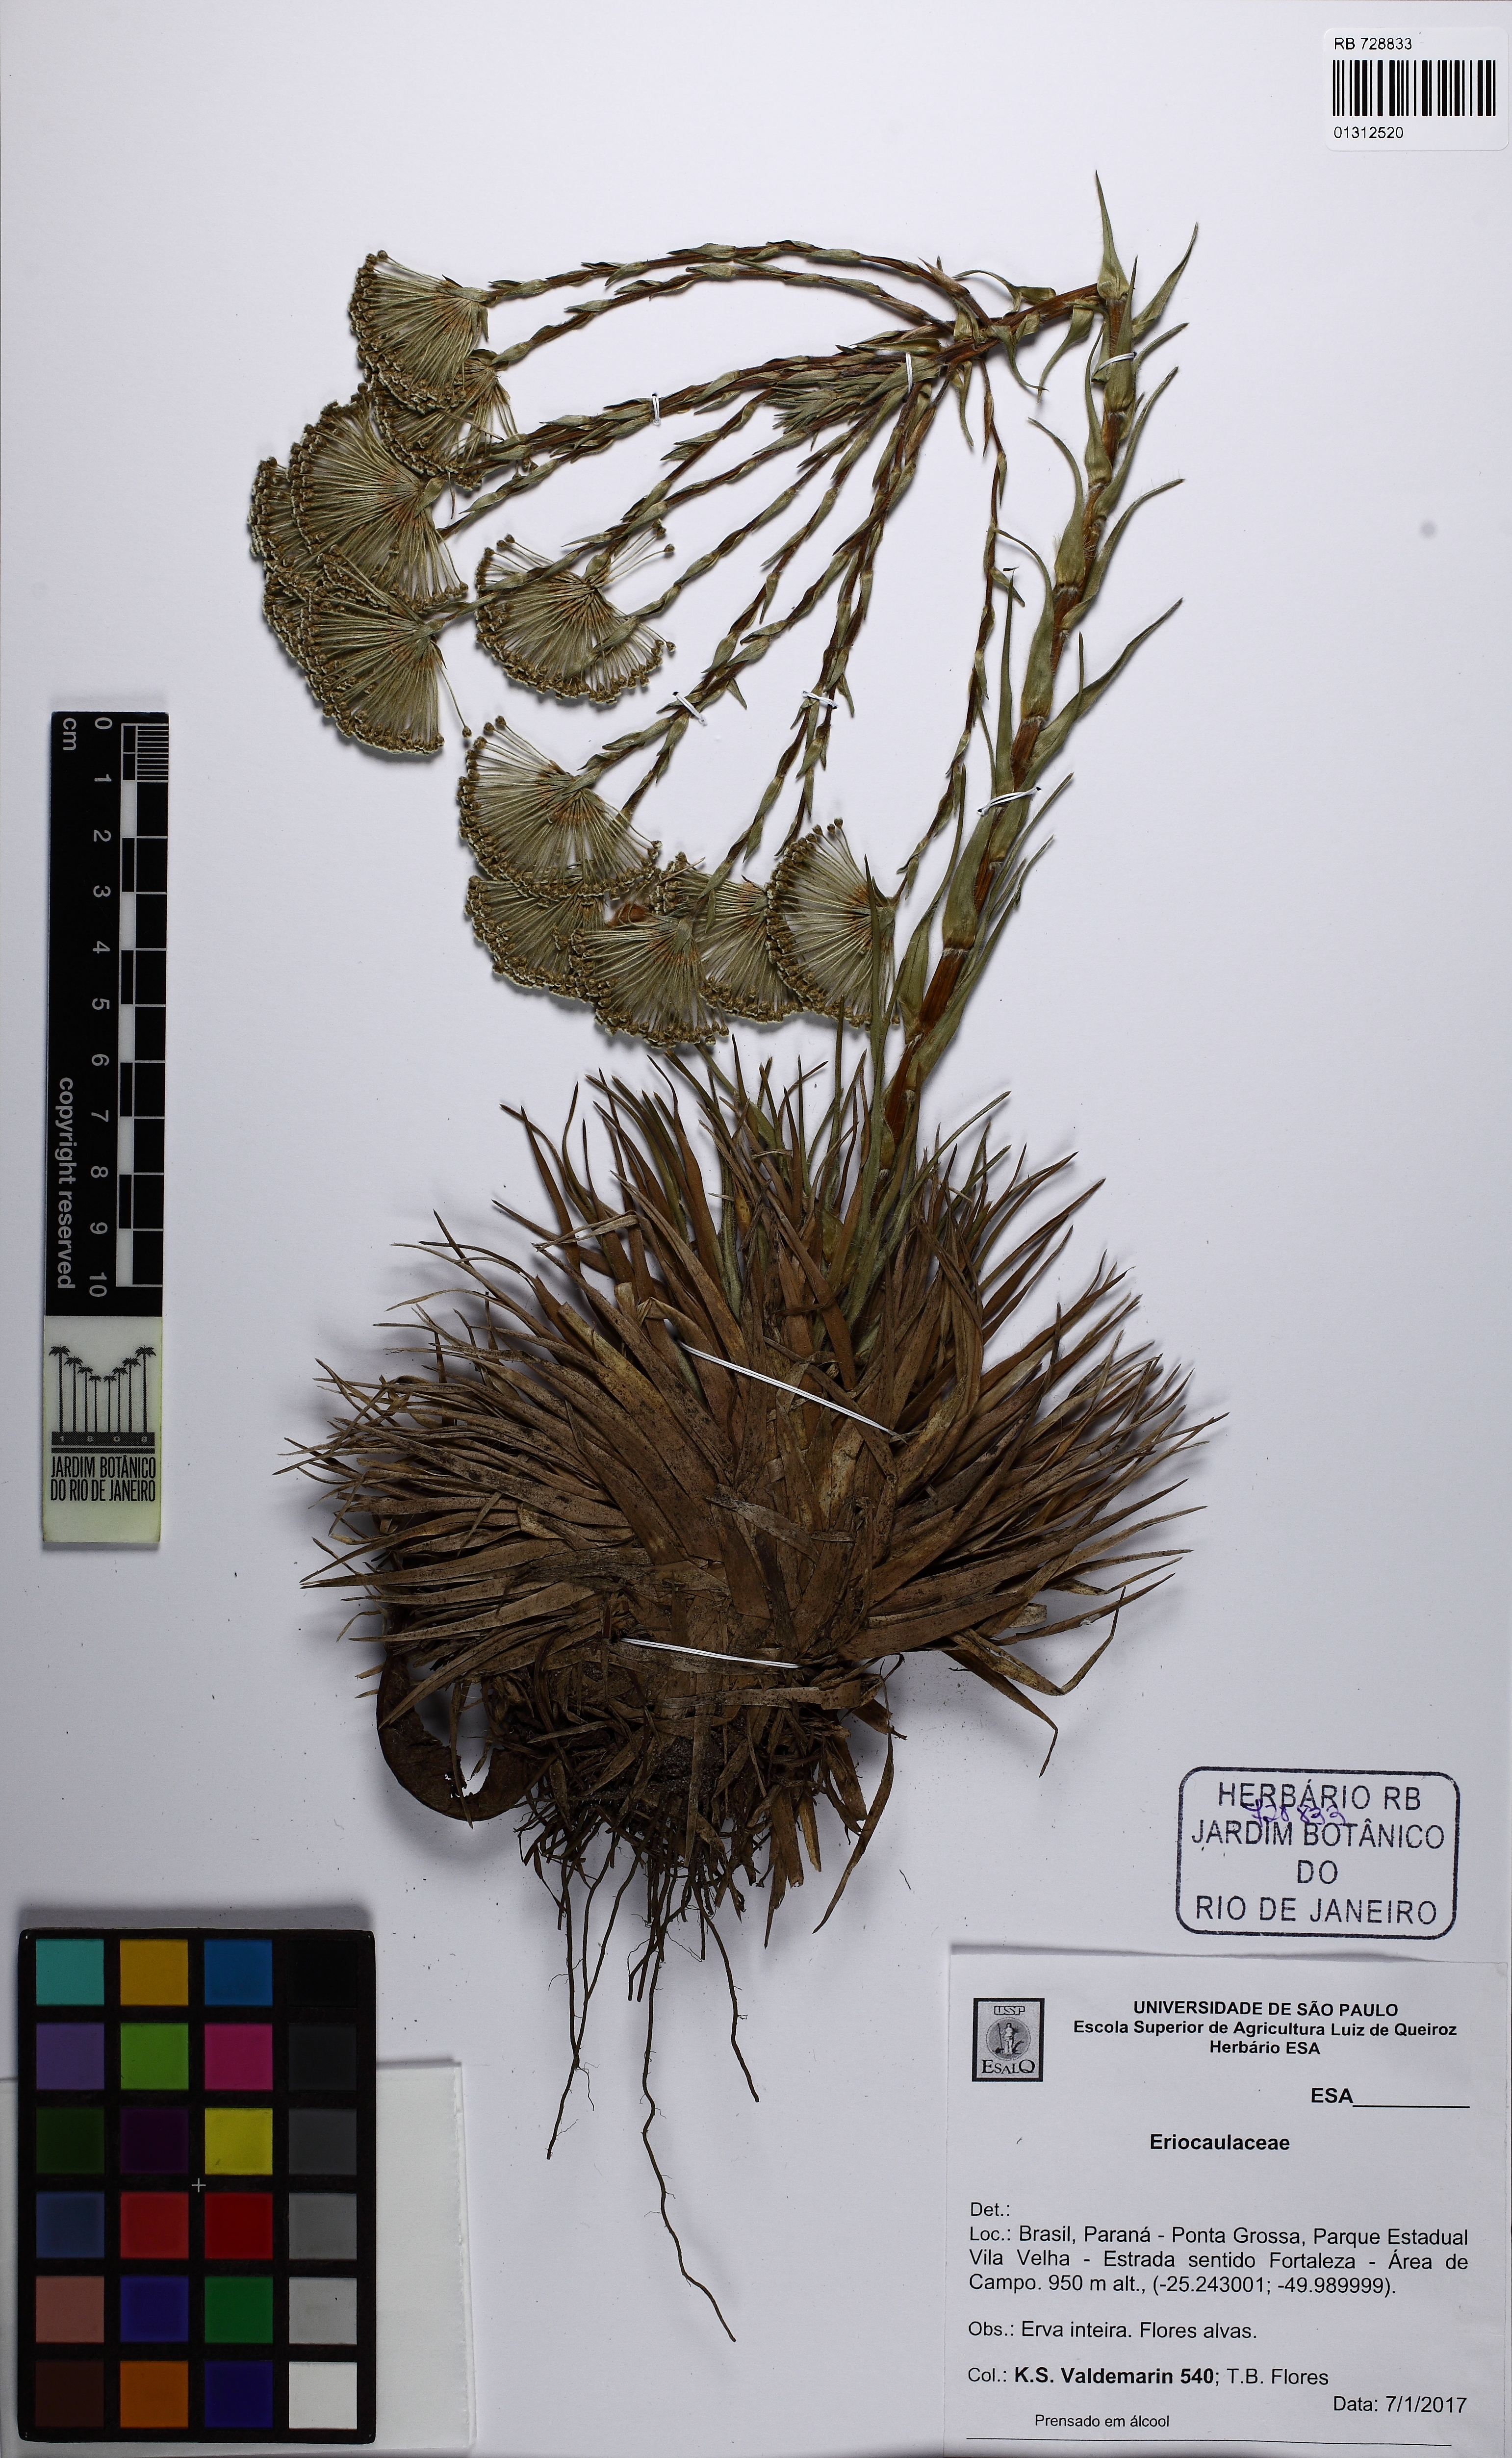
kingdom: Plantae
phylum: Tracheophyta
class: Liliopsida
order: Poales
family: Eriocaulaceae
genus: Paepalanthus
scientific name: Paepalanthus polyanthus
